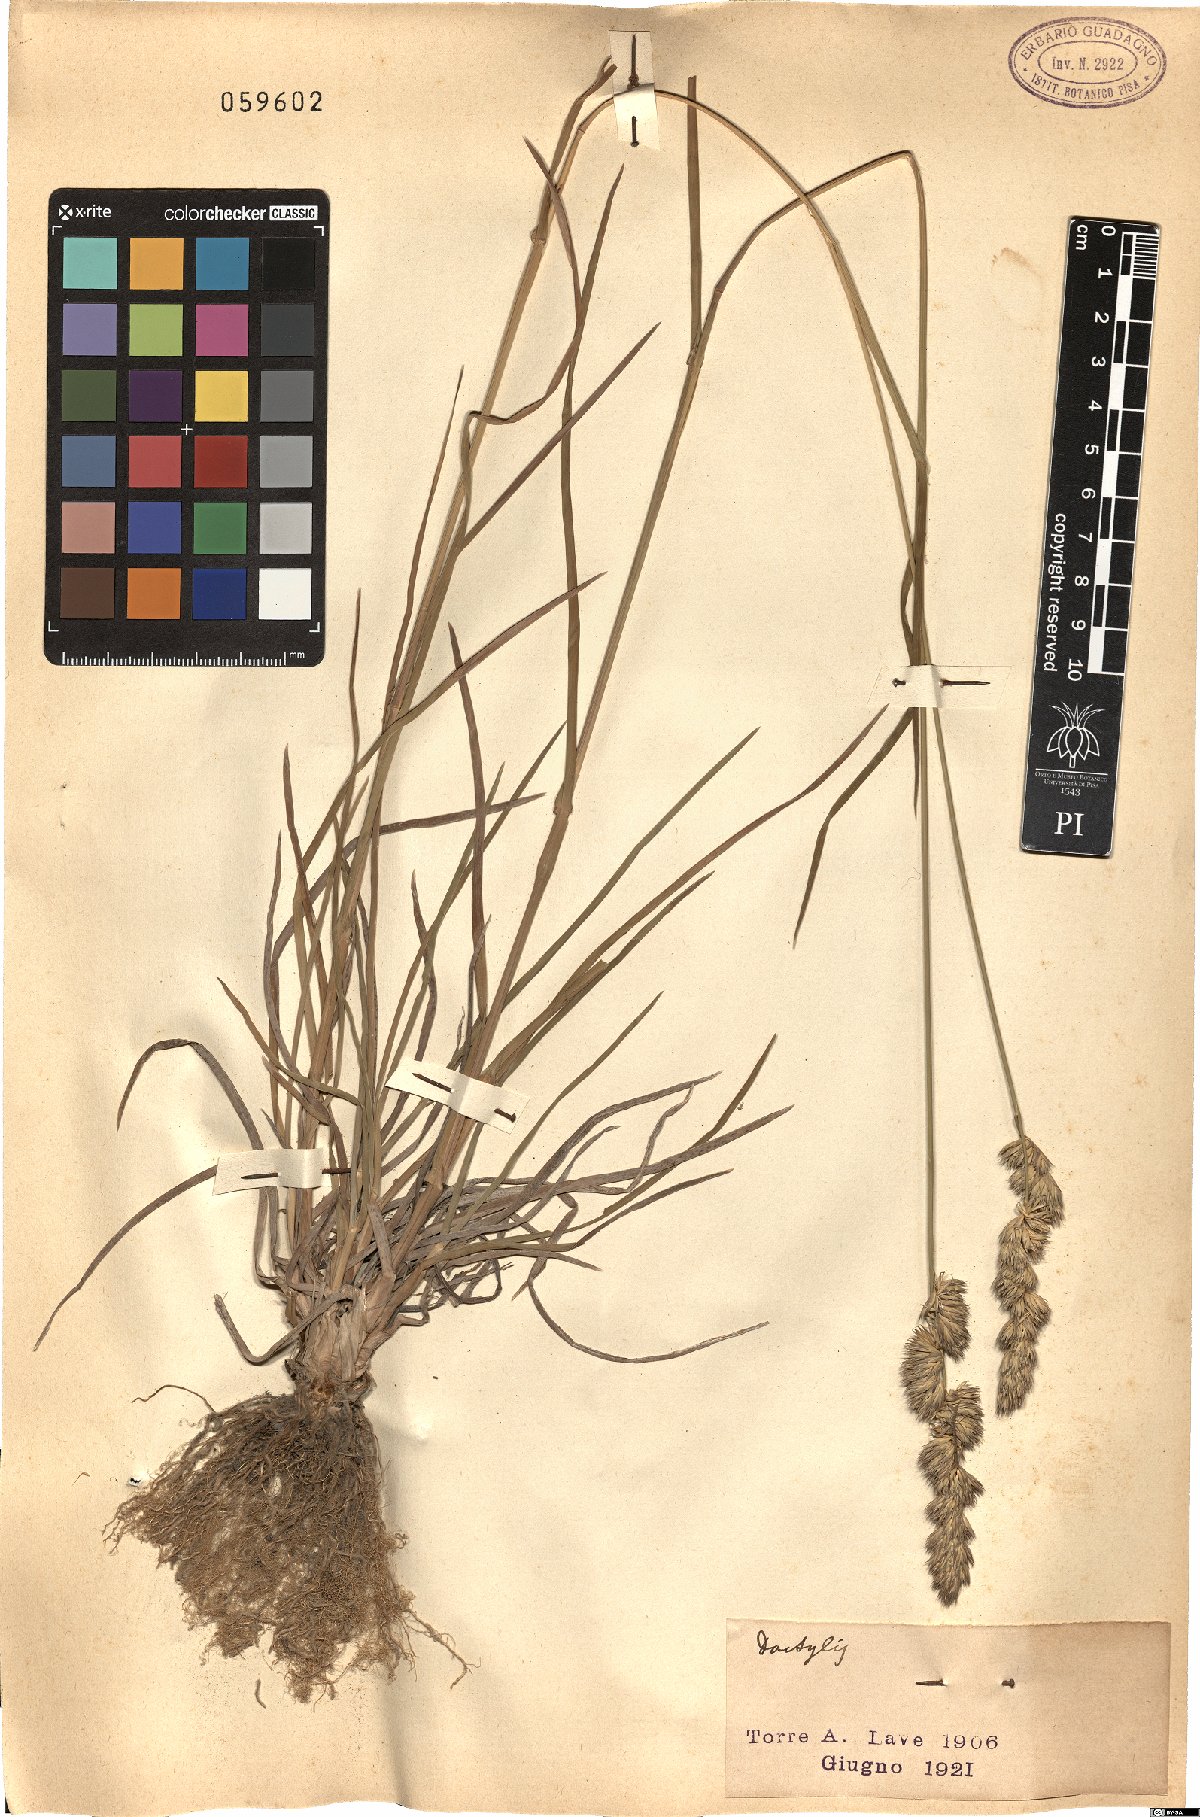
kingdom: Plantae
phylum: Tracheophyta
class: Liliopsida
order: Poales
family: Poaceae
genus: Dactylis
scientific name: Dactylis
